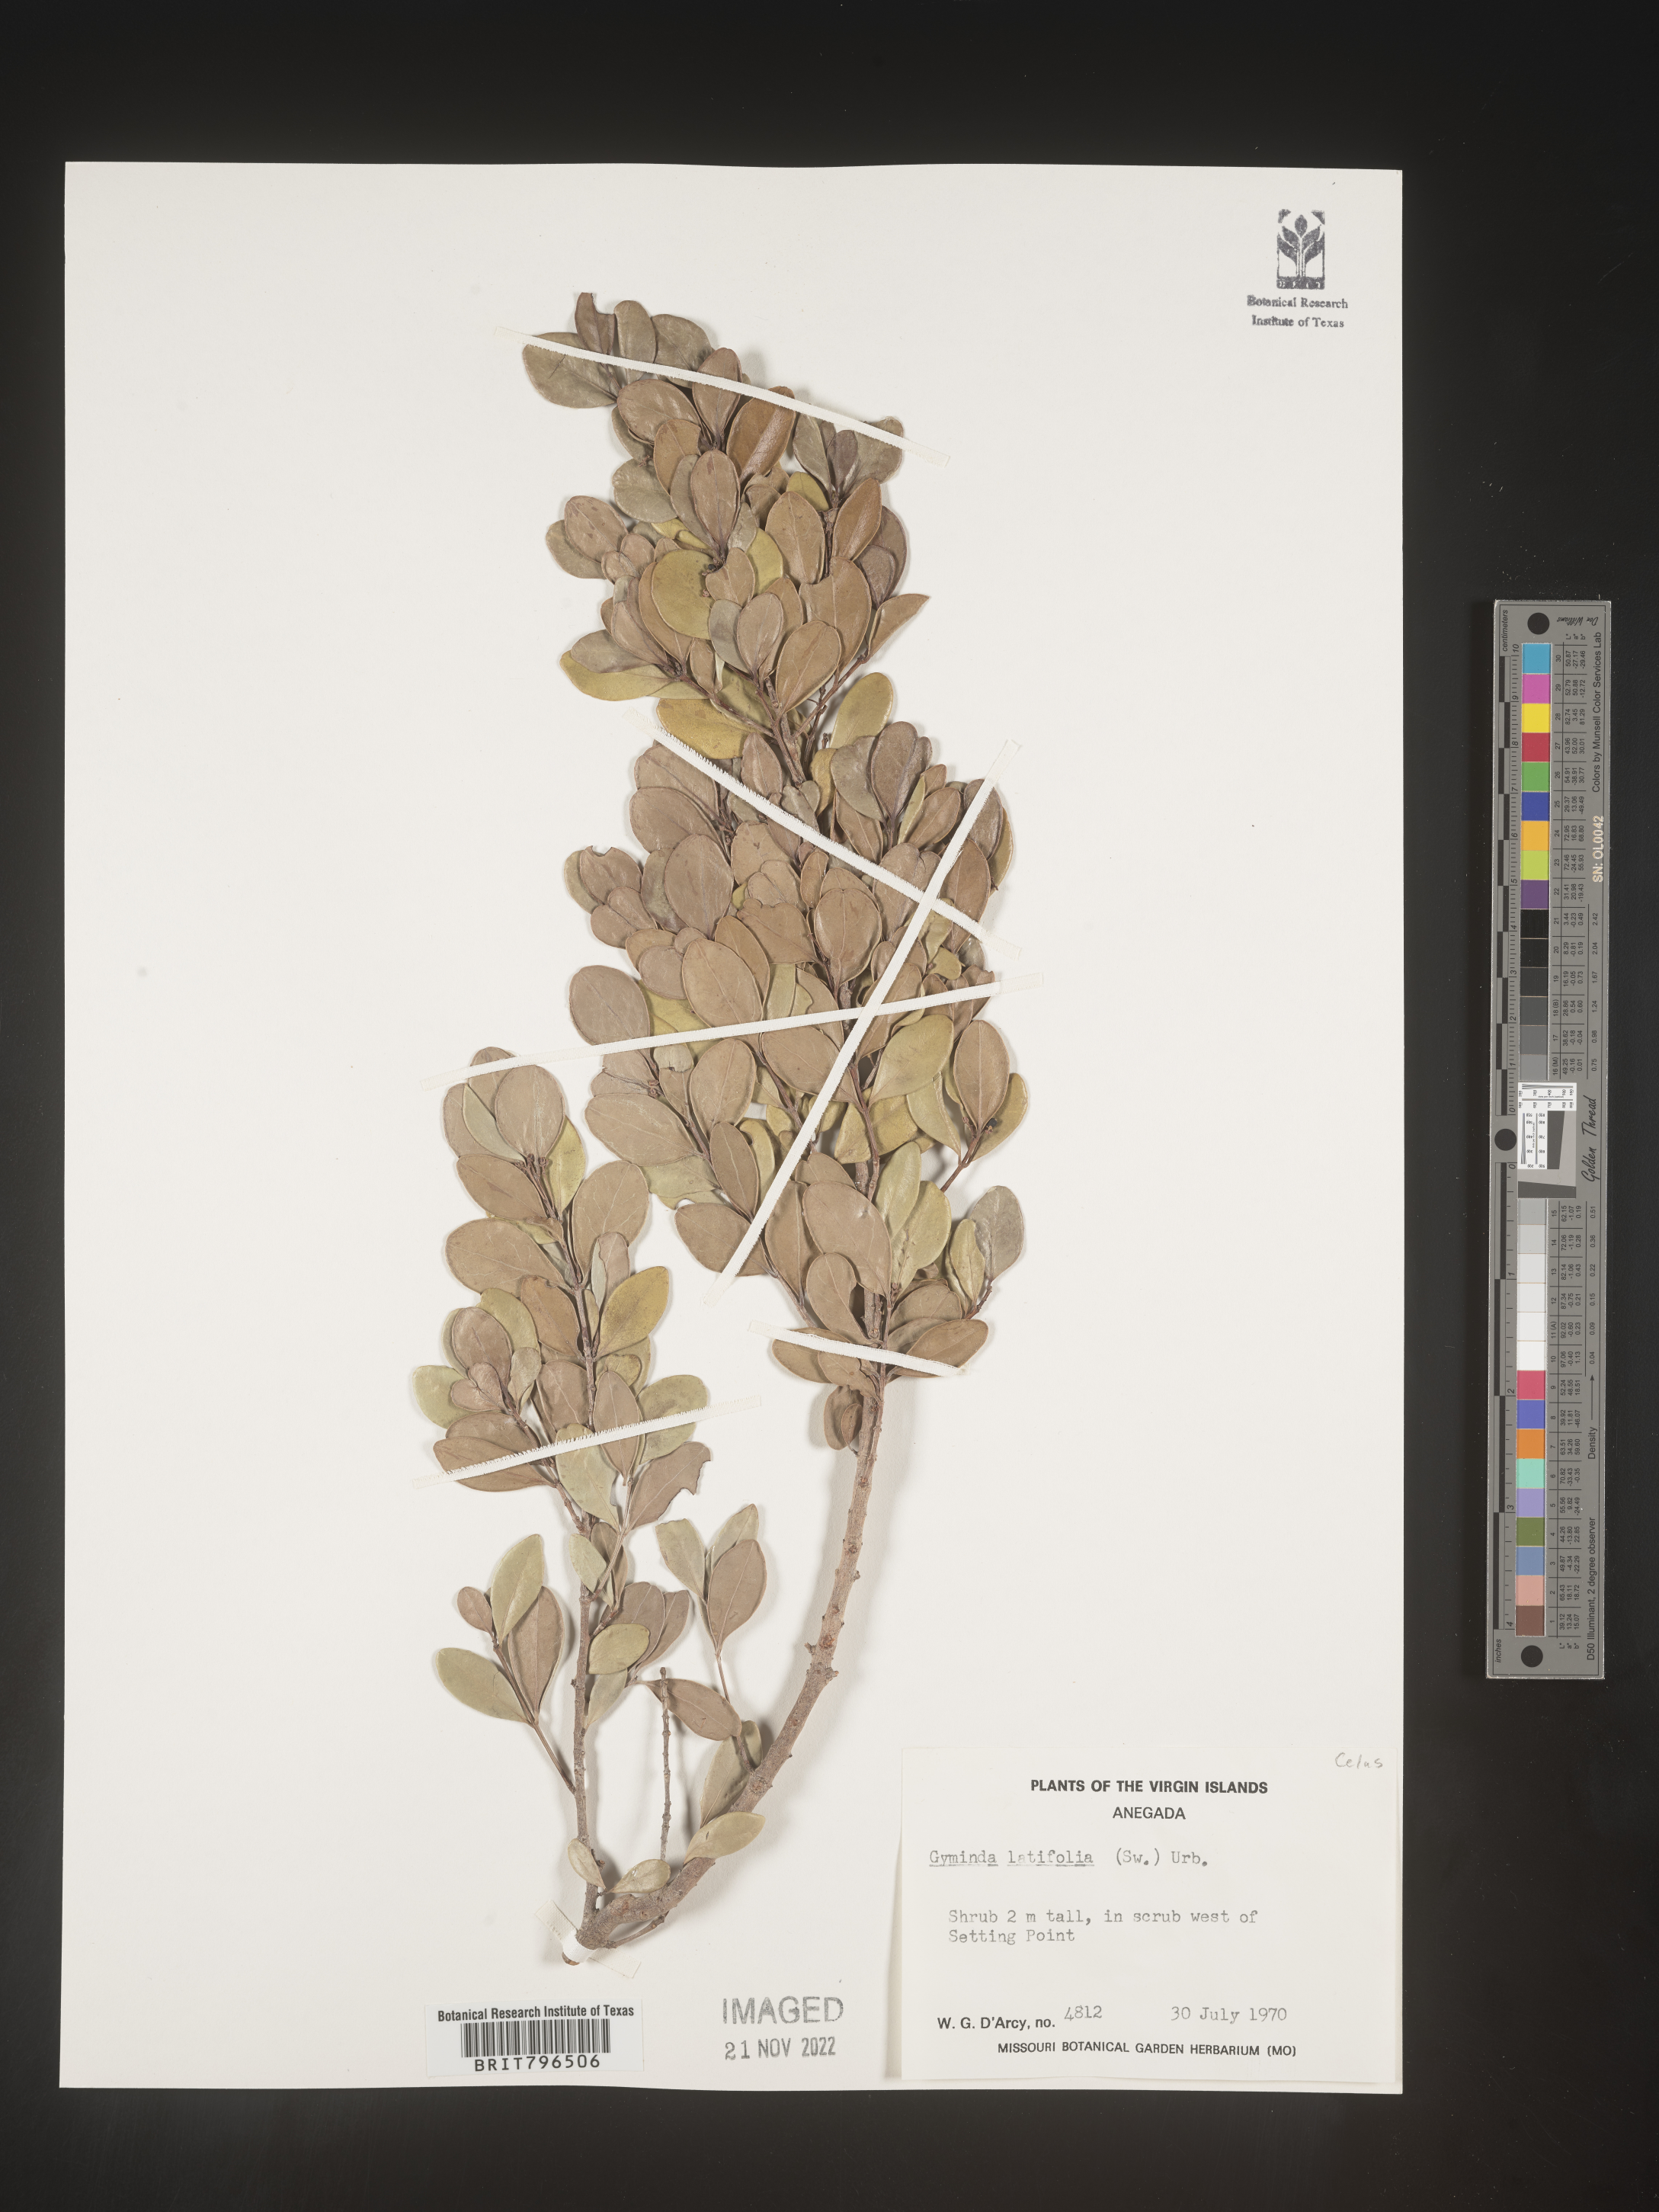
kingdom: Plantae
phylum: Tracheophyta
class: Magnoliopsida
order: Celastrales
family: Celastraceae
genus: Gyminda
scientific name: Gyminda
